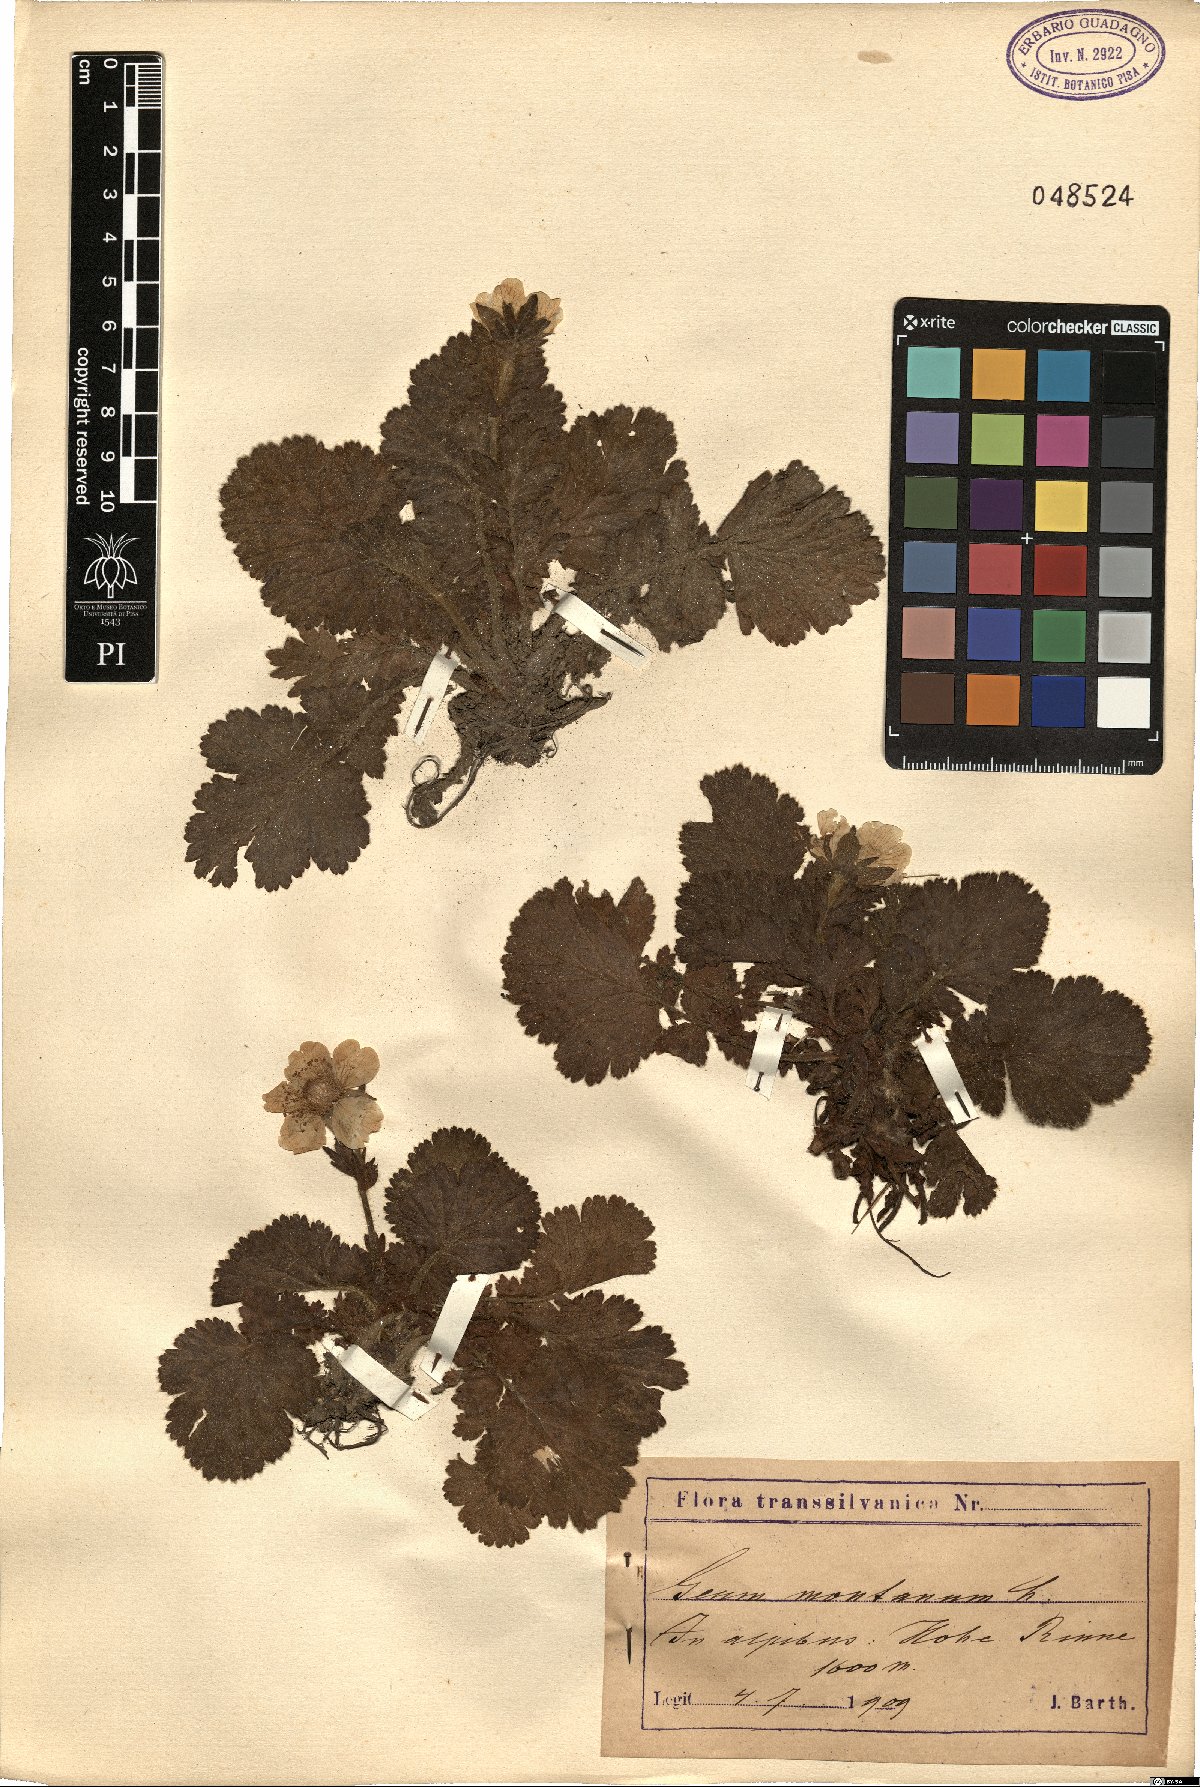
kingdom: Plantae
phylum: Tracheophyta
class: Magnoliopsida
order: Rosales
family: Rosaceae
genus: Geum
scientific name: Geum montanum
